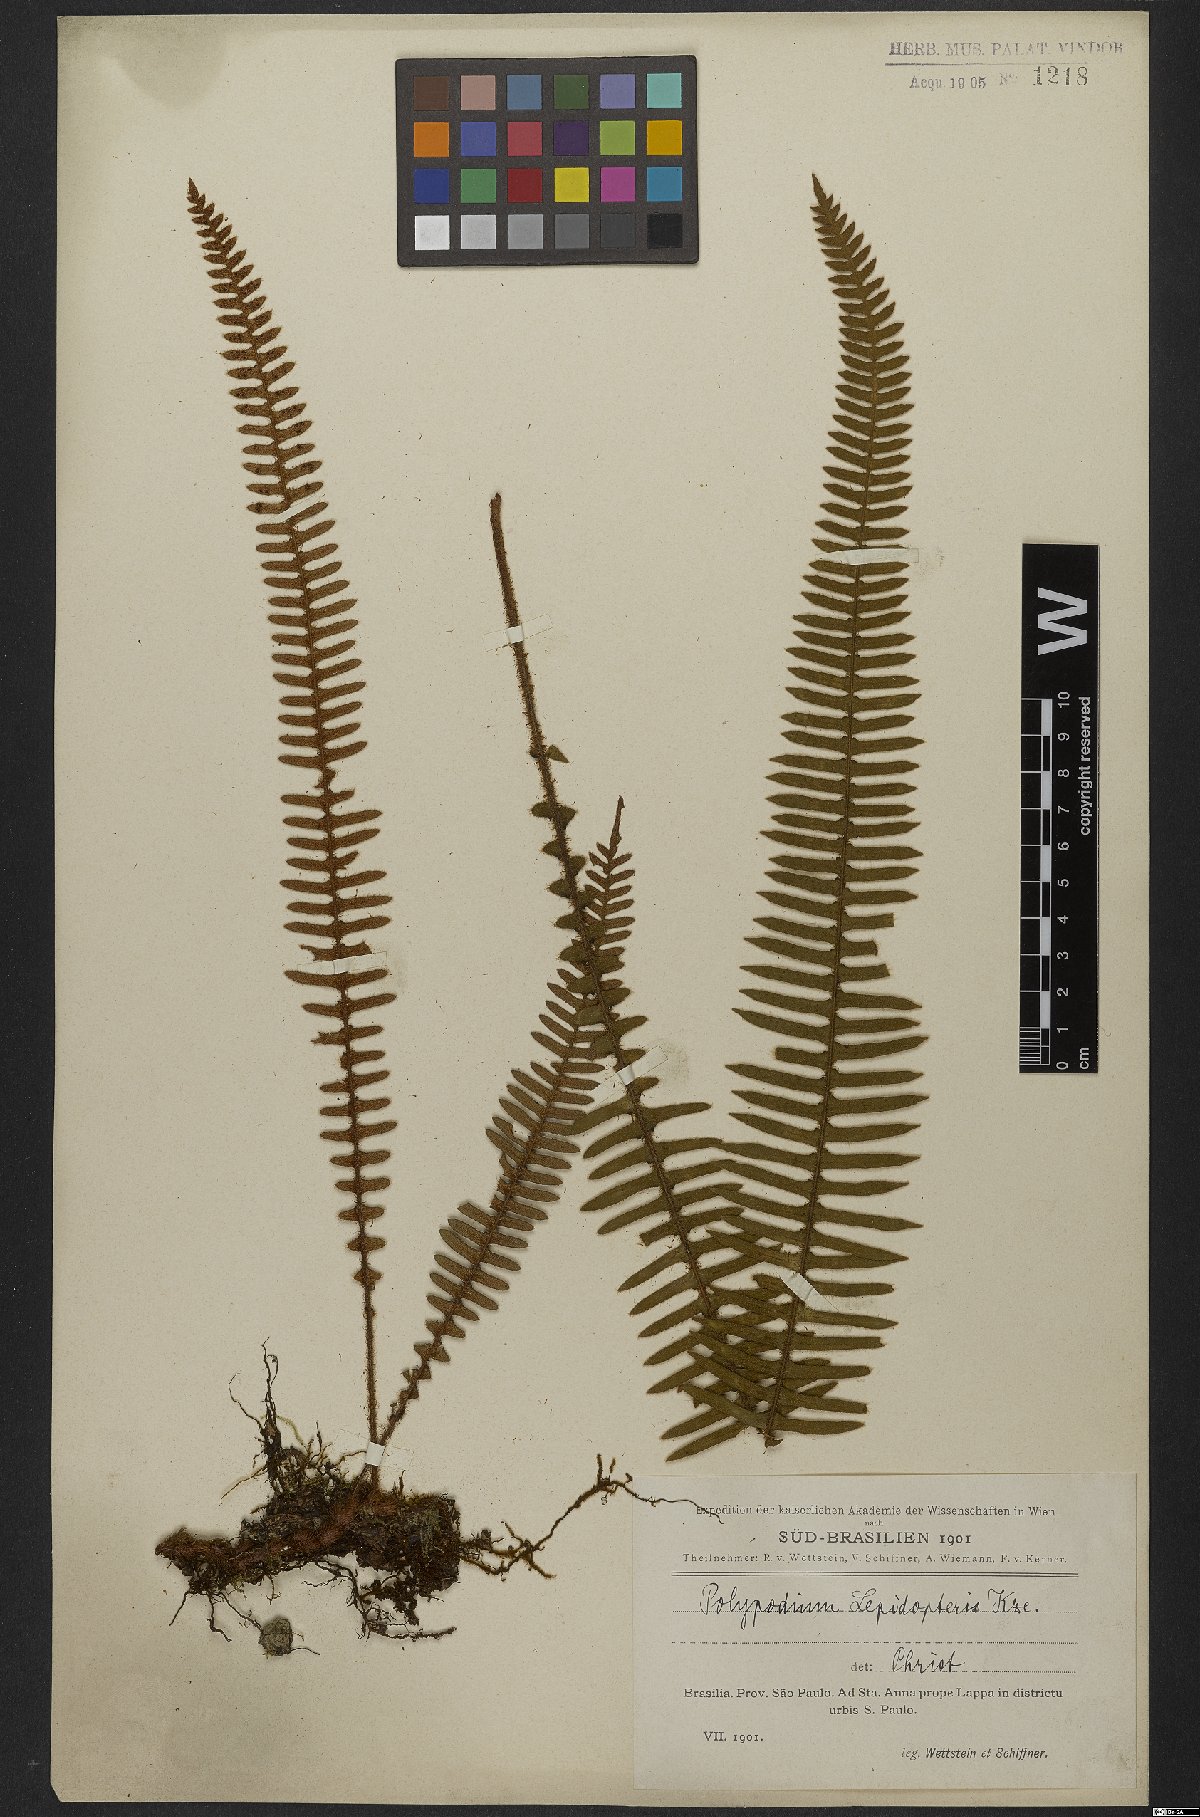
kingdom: Plantae
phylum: Tracheophyta
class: Polypodiopsida
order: Polypodiales
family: Polypodiaceae
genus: Pleopeltis
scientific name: Pleopeltis lepidopteris
